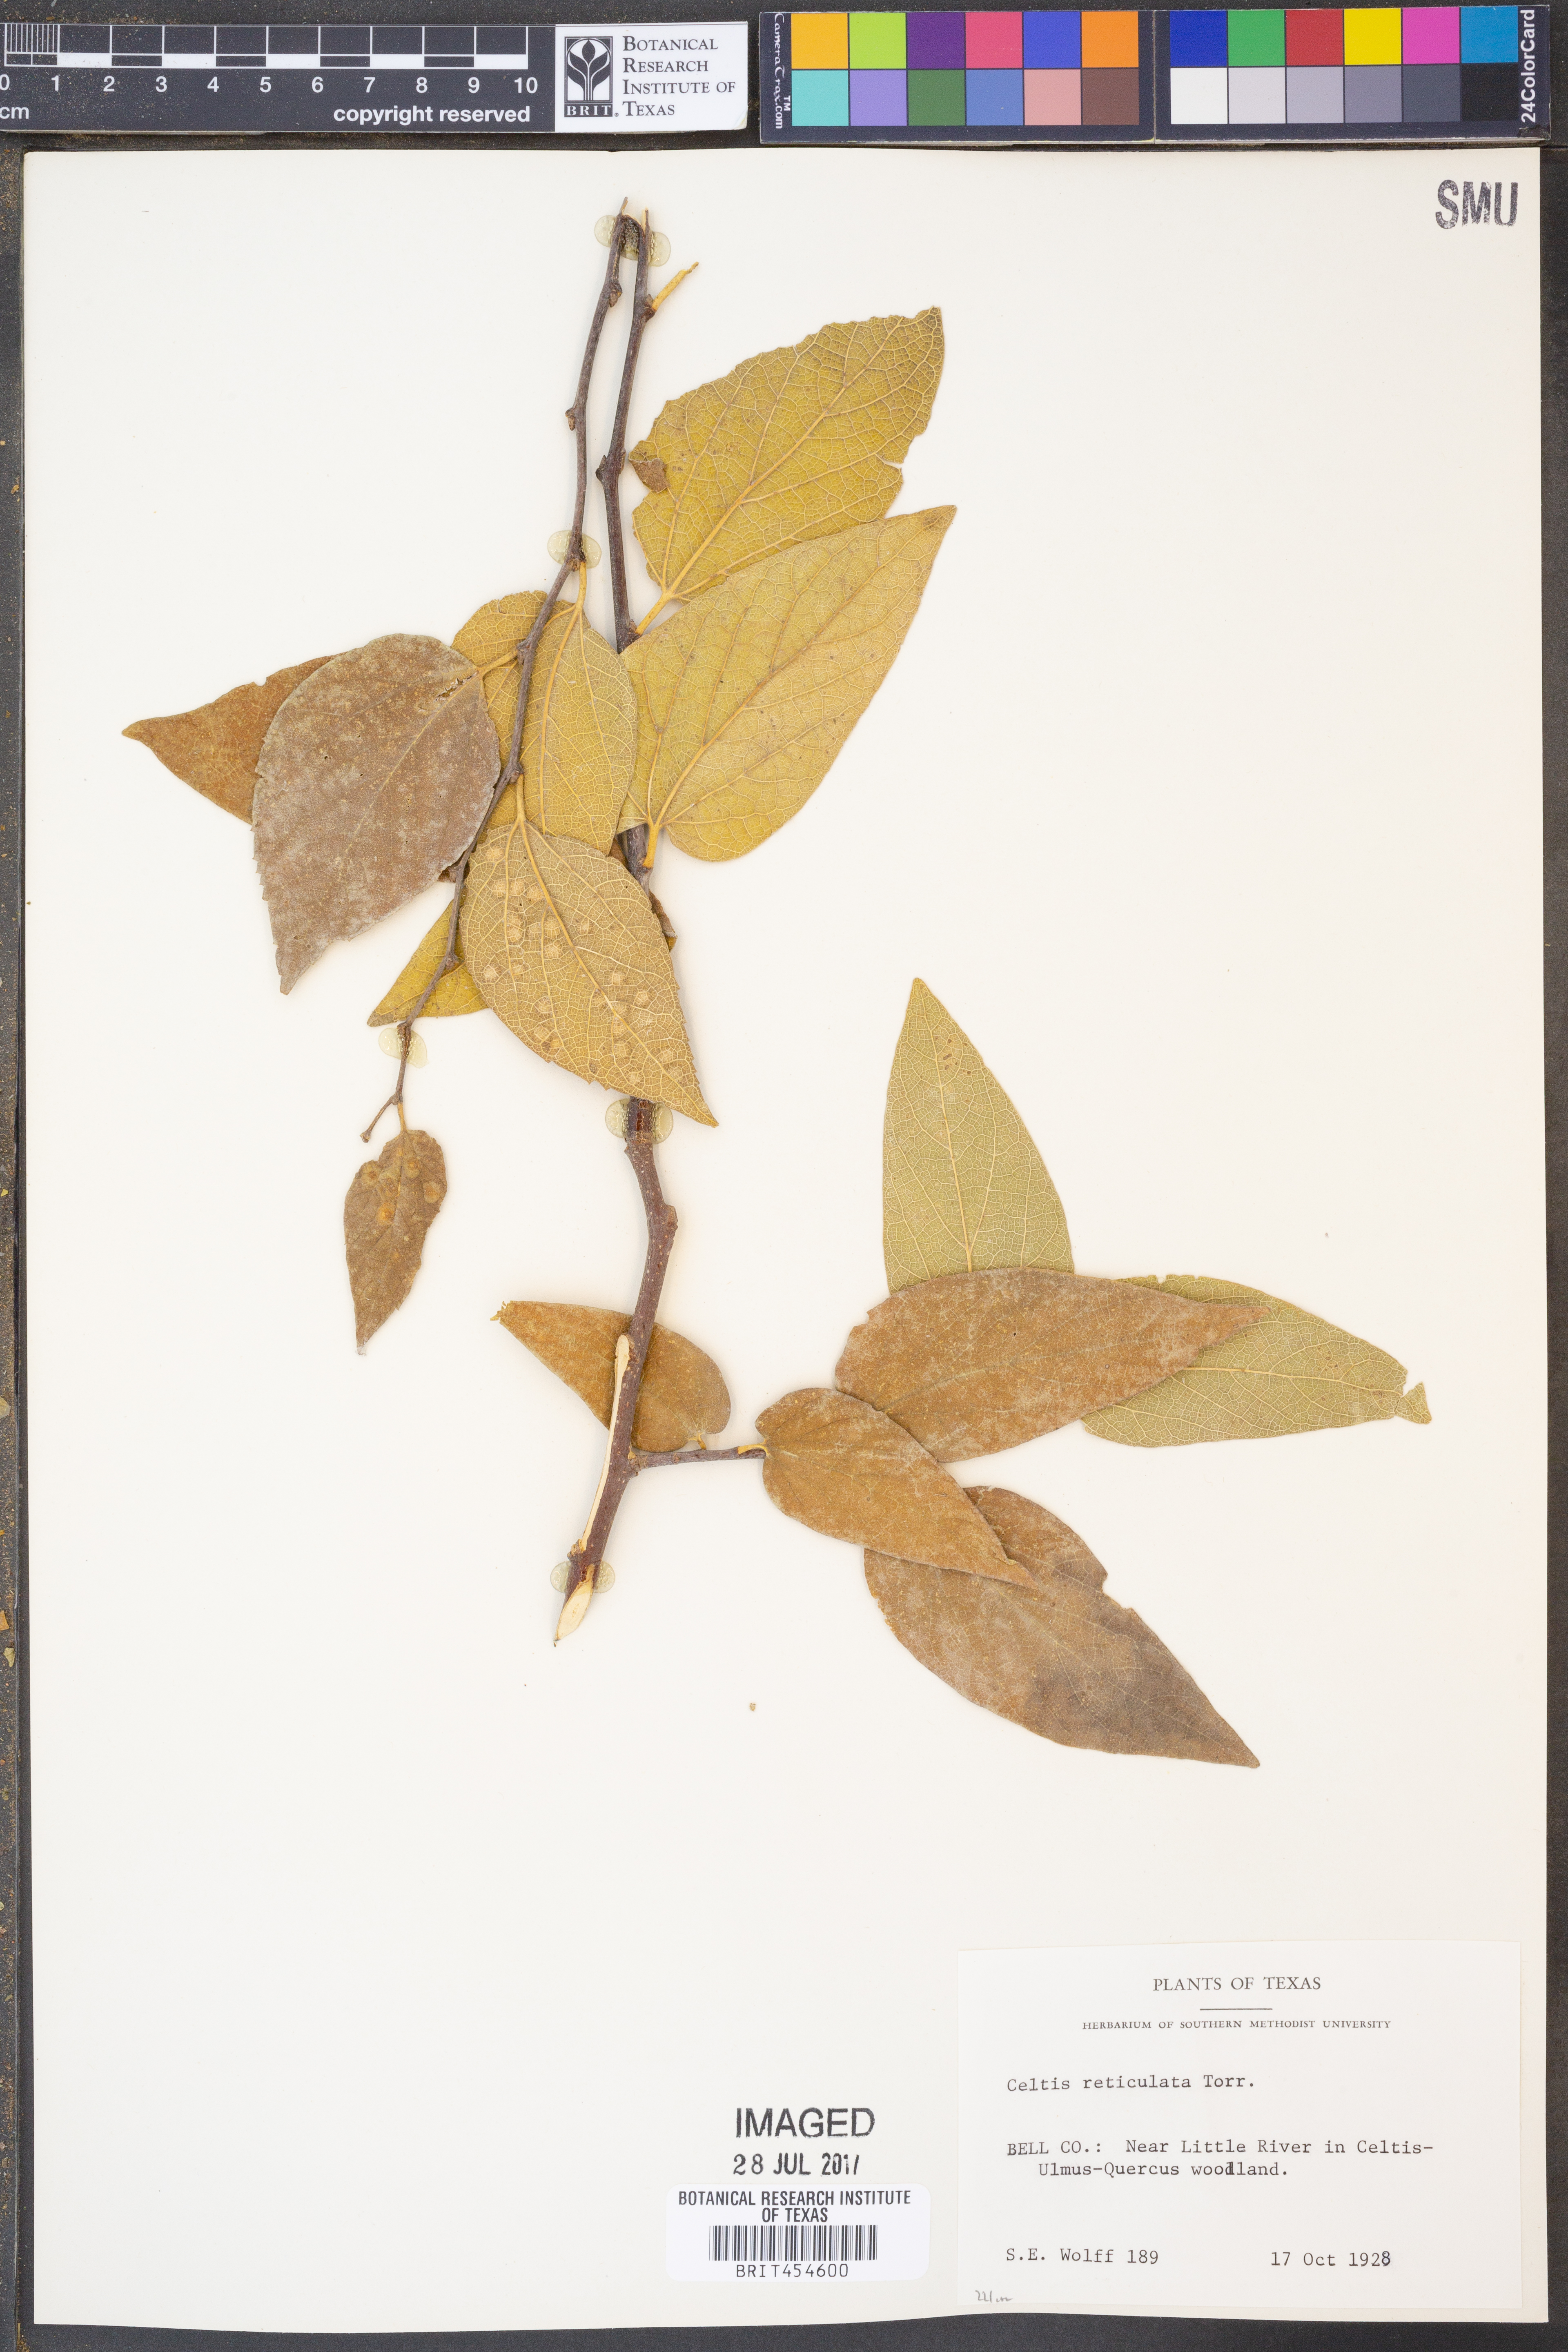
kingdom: Plantae
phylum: Tracheophyta
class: Magnoliopsida
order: Rosales
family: Cannabaceae
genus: Celtis
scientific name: Celtis reticulata
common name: Netleaf hackberry
